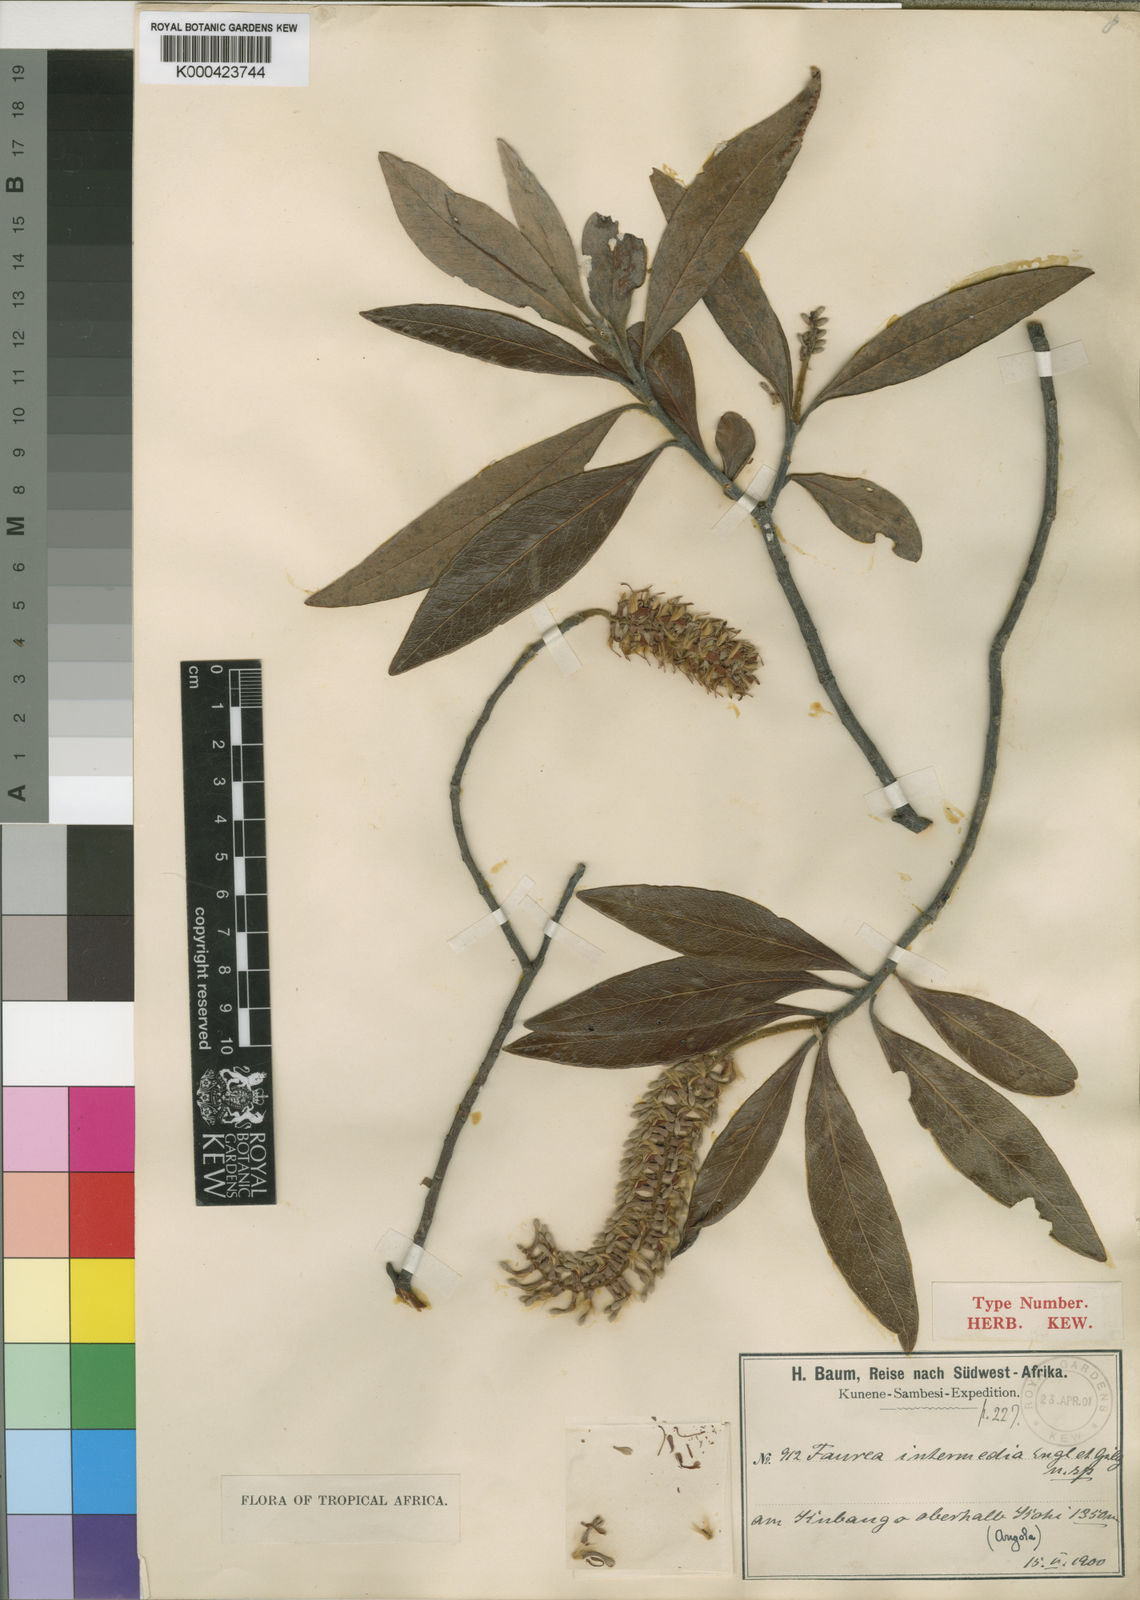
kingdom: Plantae
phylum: Tracheophyta
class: Magnoliopsida
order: Proteales
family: Proteaceae
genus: Faurea
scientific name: Faurea intermedia
